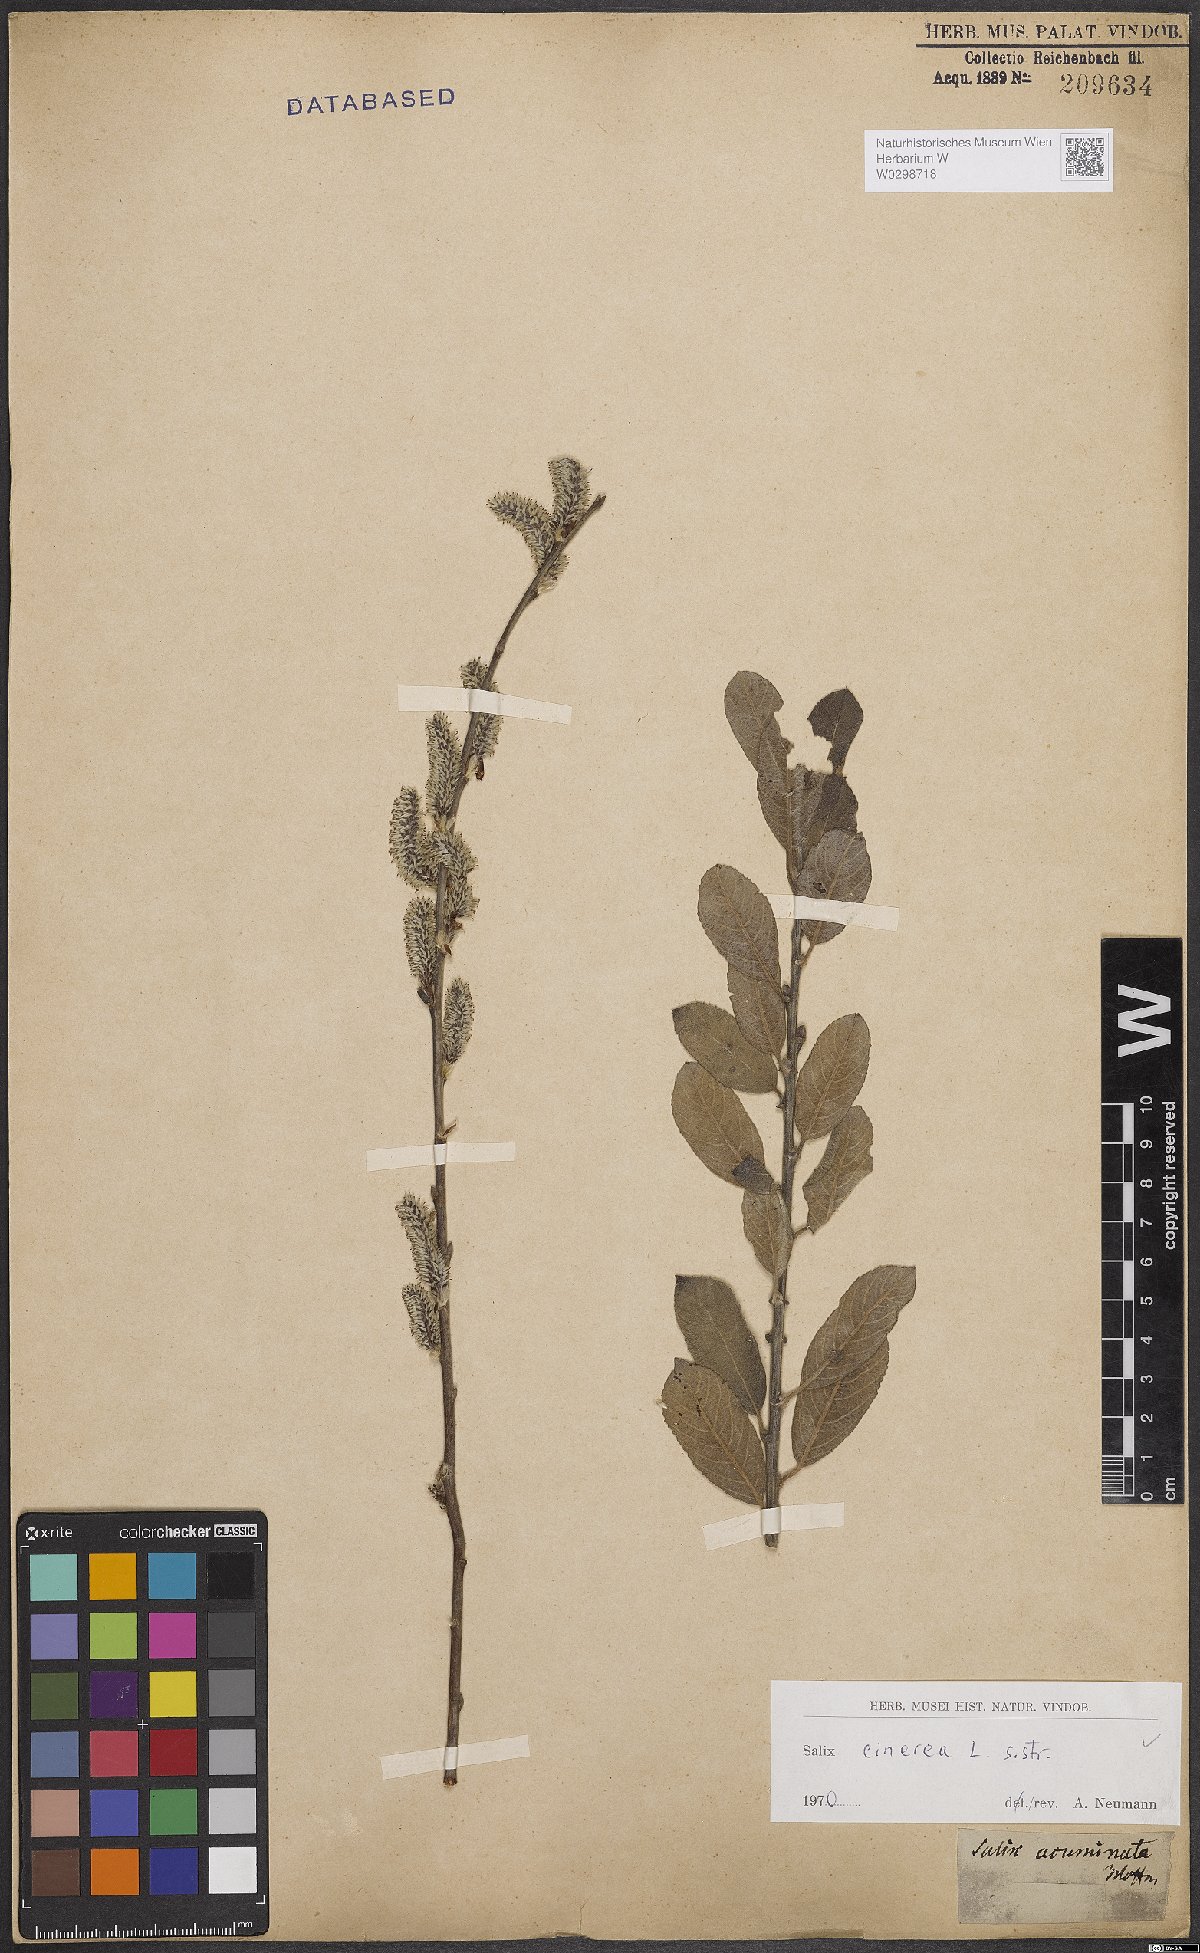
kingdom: Plantae
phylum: Tracheophyta
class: Magnoliopsida
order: Malpighiales
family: Salicaceae
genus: Salix
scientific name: Salix cinerea
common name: Common sallow
